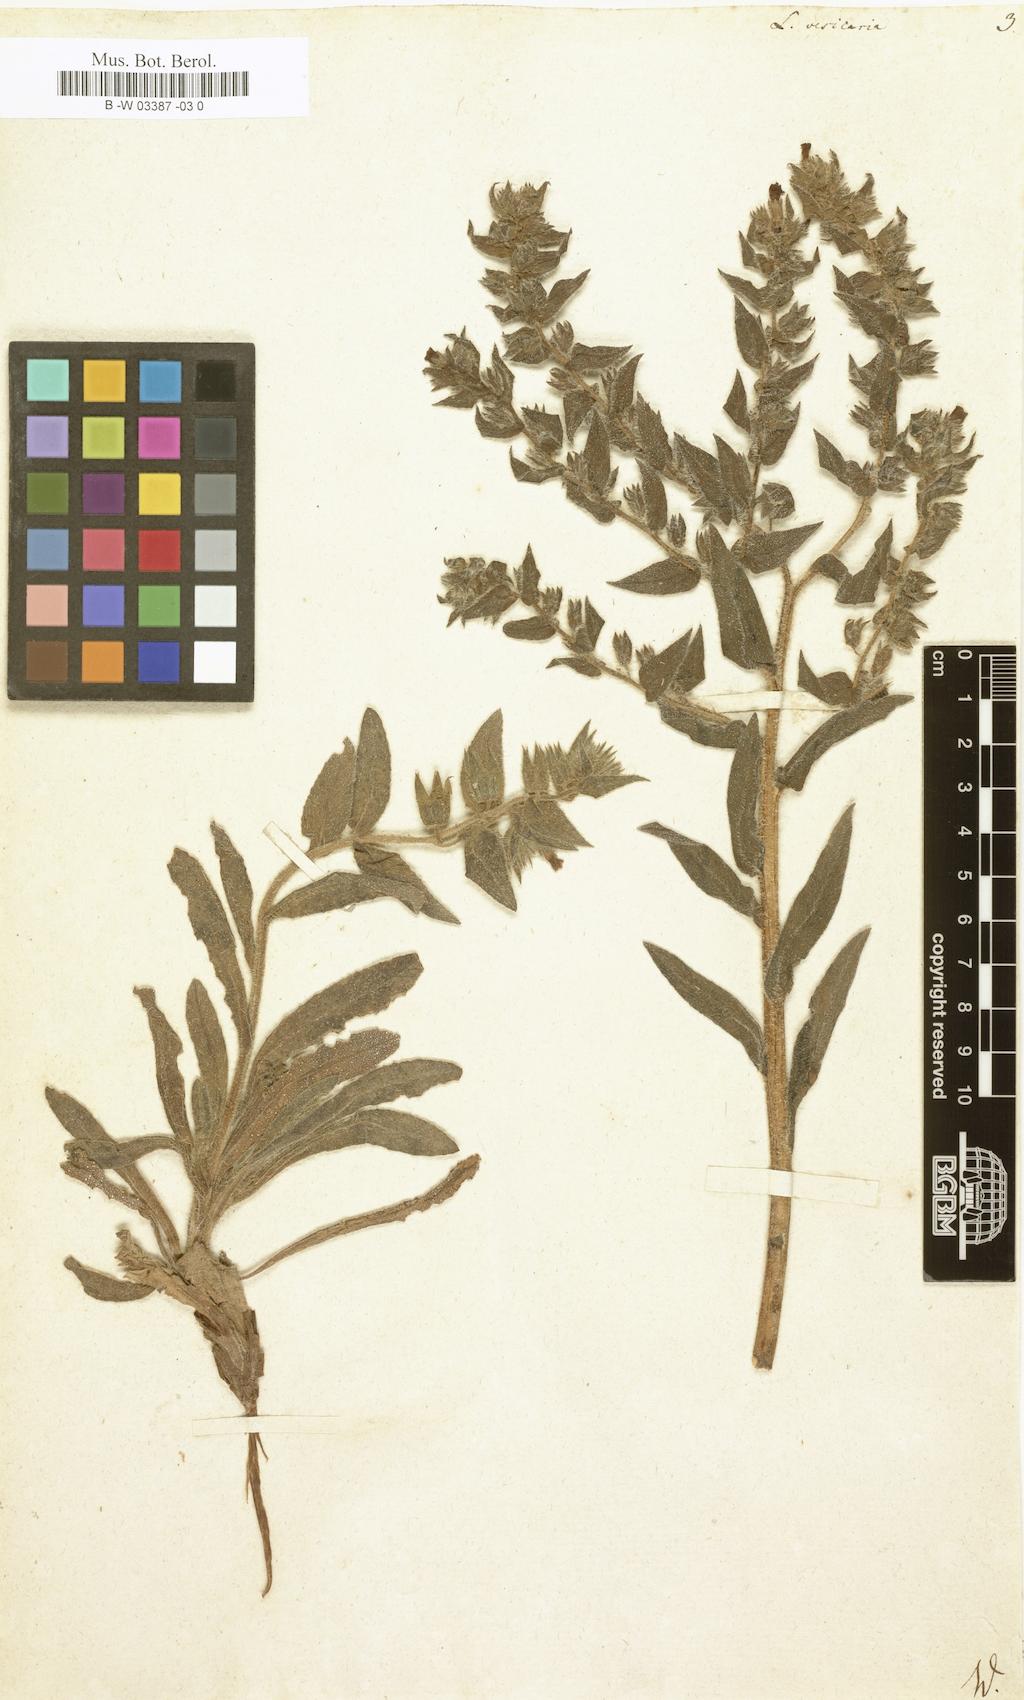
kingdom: Plantae
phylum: Tracheophyta
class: Magnoliopsida
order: Boraginales
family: Boraginaceae
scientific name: Boraginaceae
